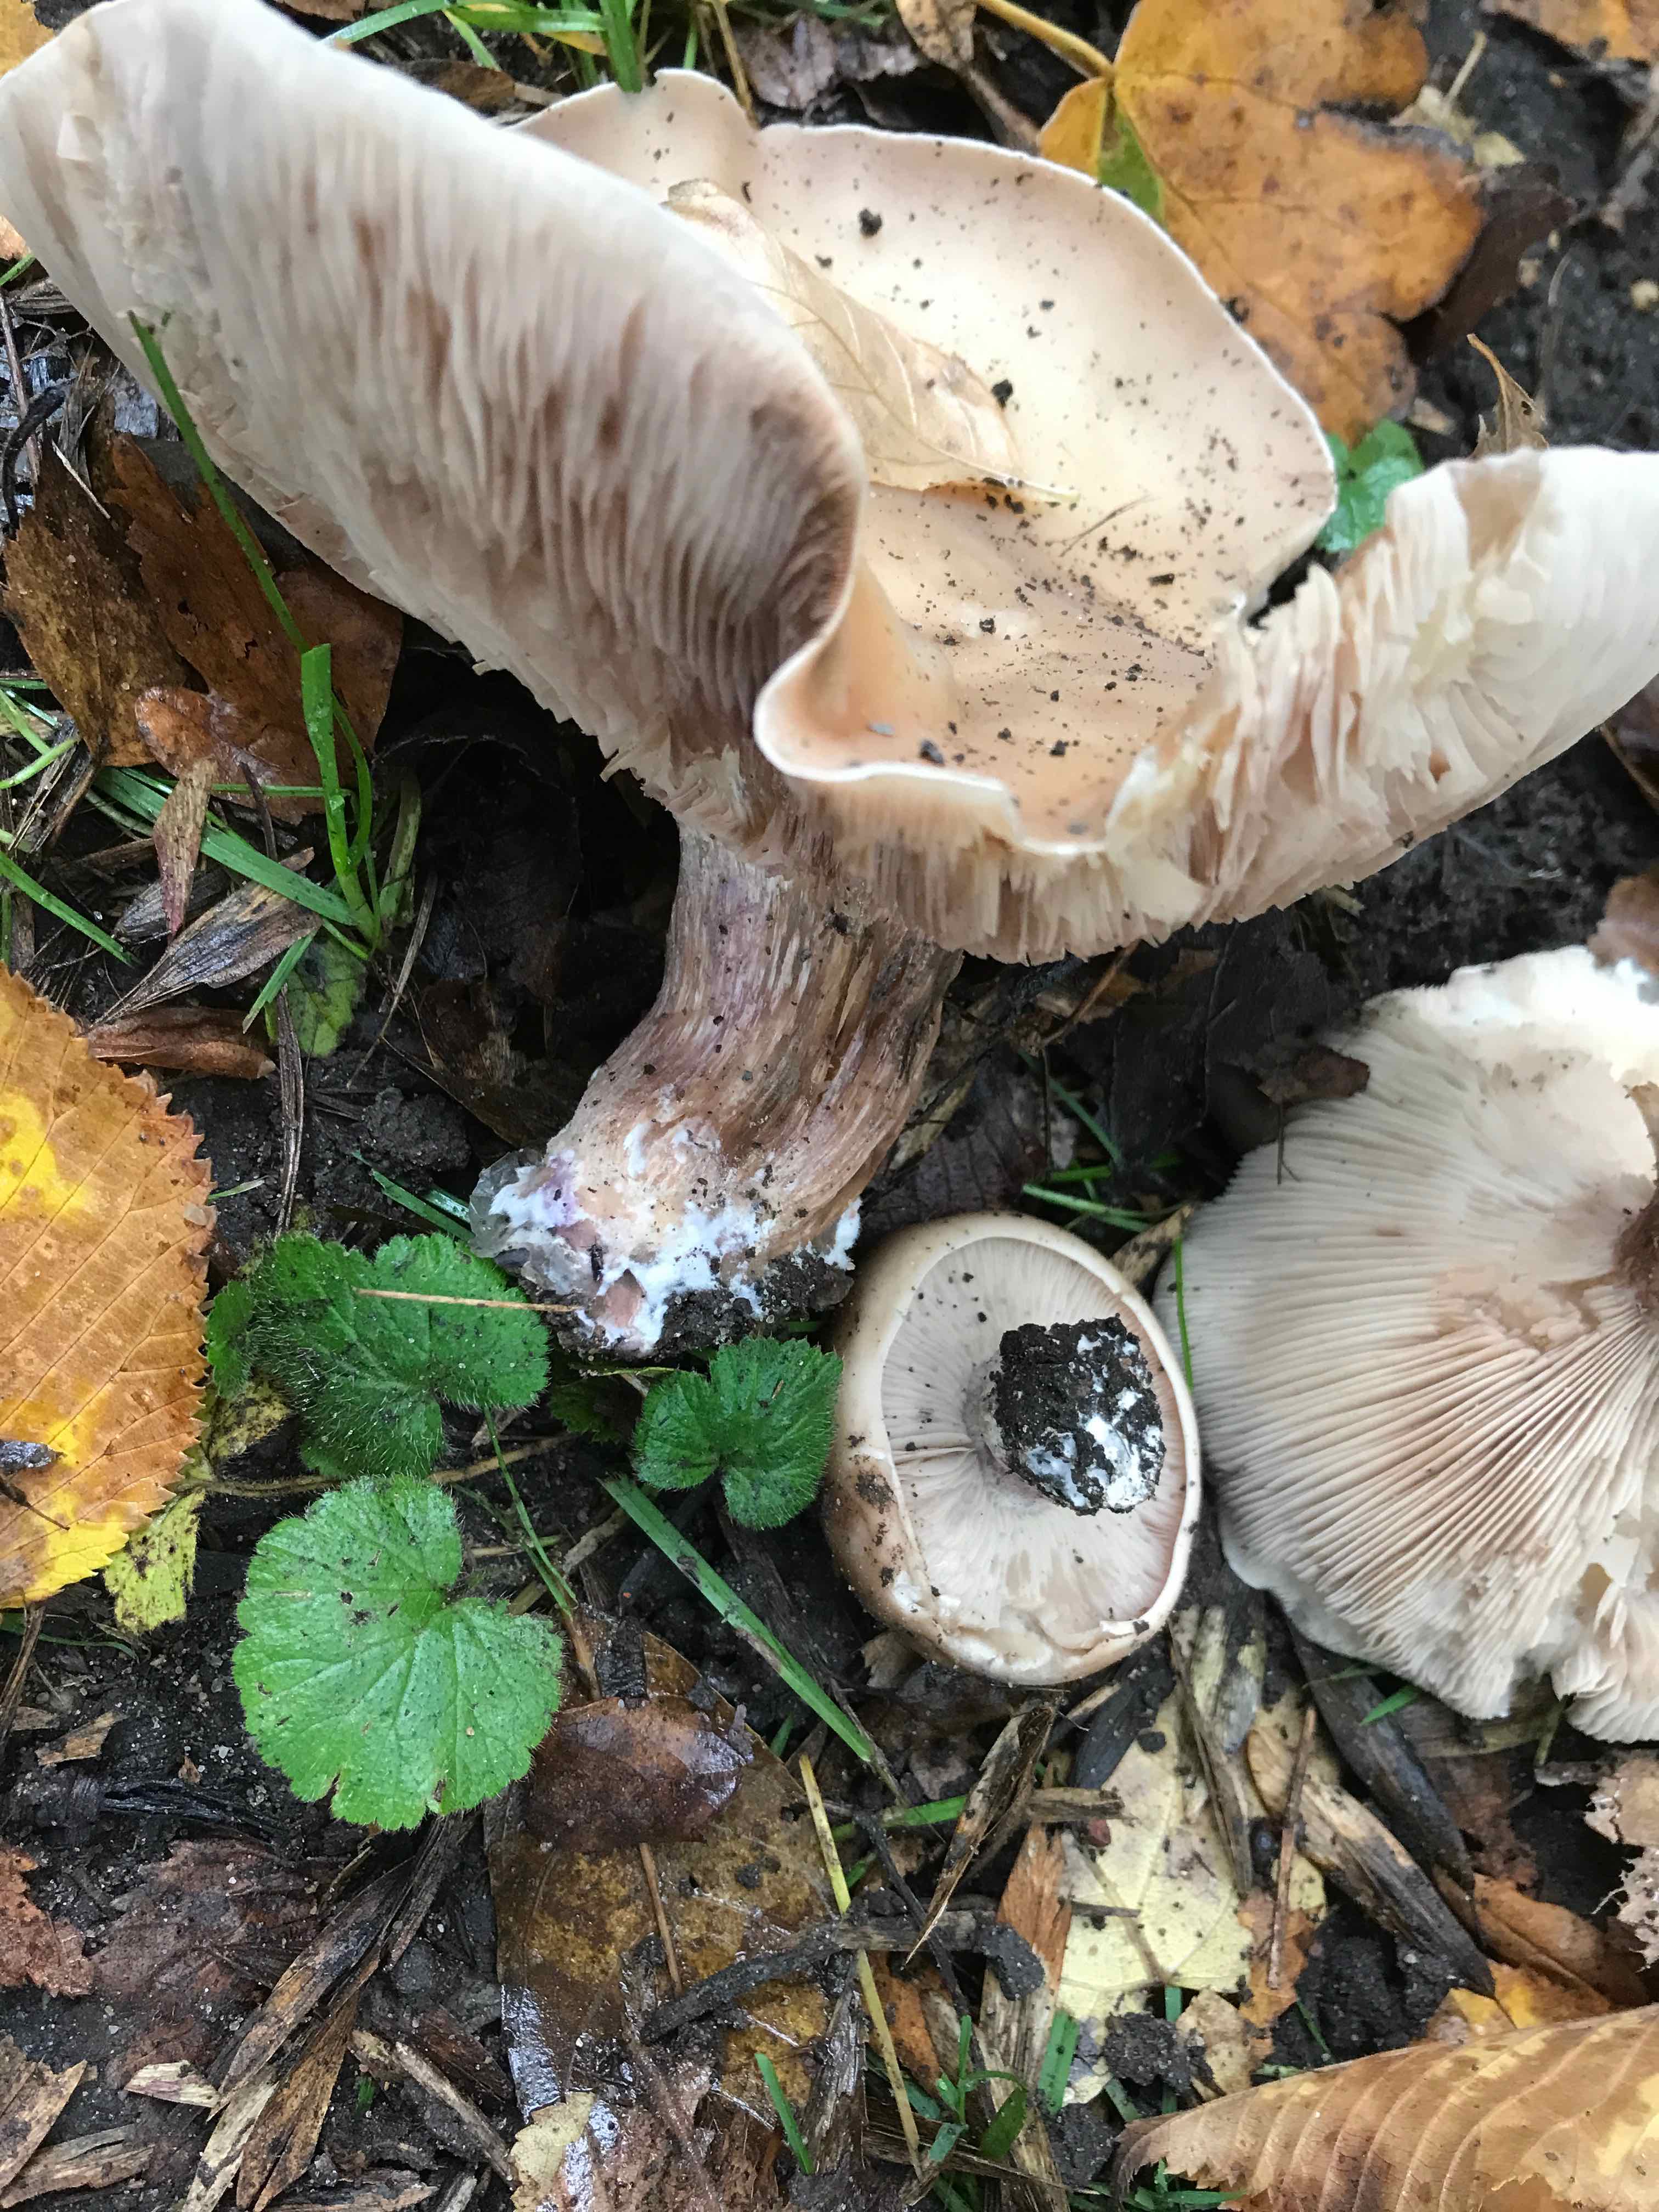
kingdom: Fungi
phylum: Basidiomycota
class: Agaricomycetes
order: Agaricales
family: Tricholomataceae
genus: Lepista
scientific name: Lepista personata
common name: bleg hekseringshat
